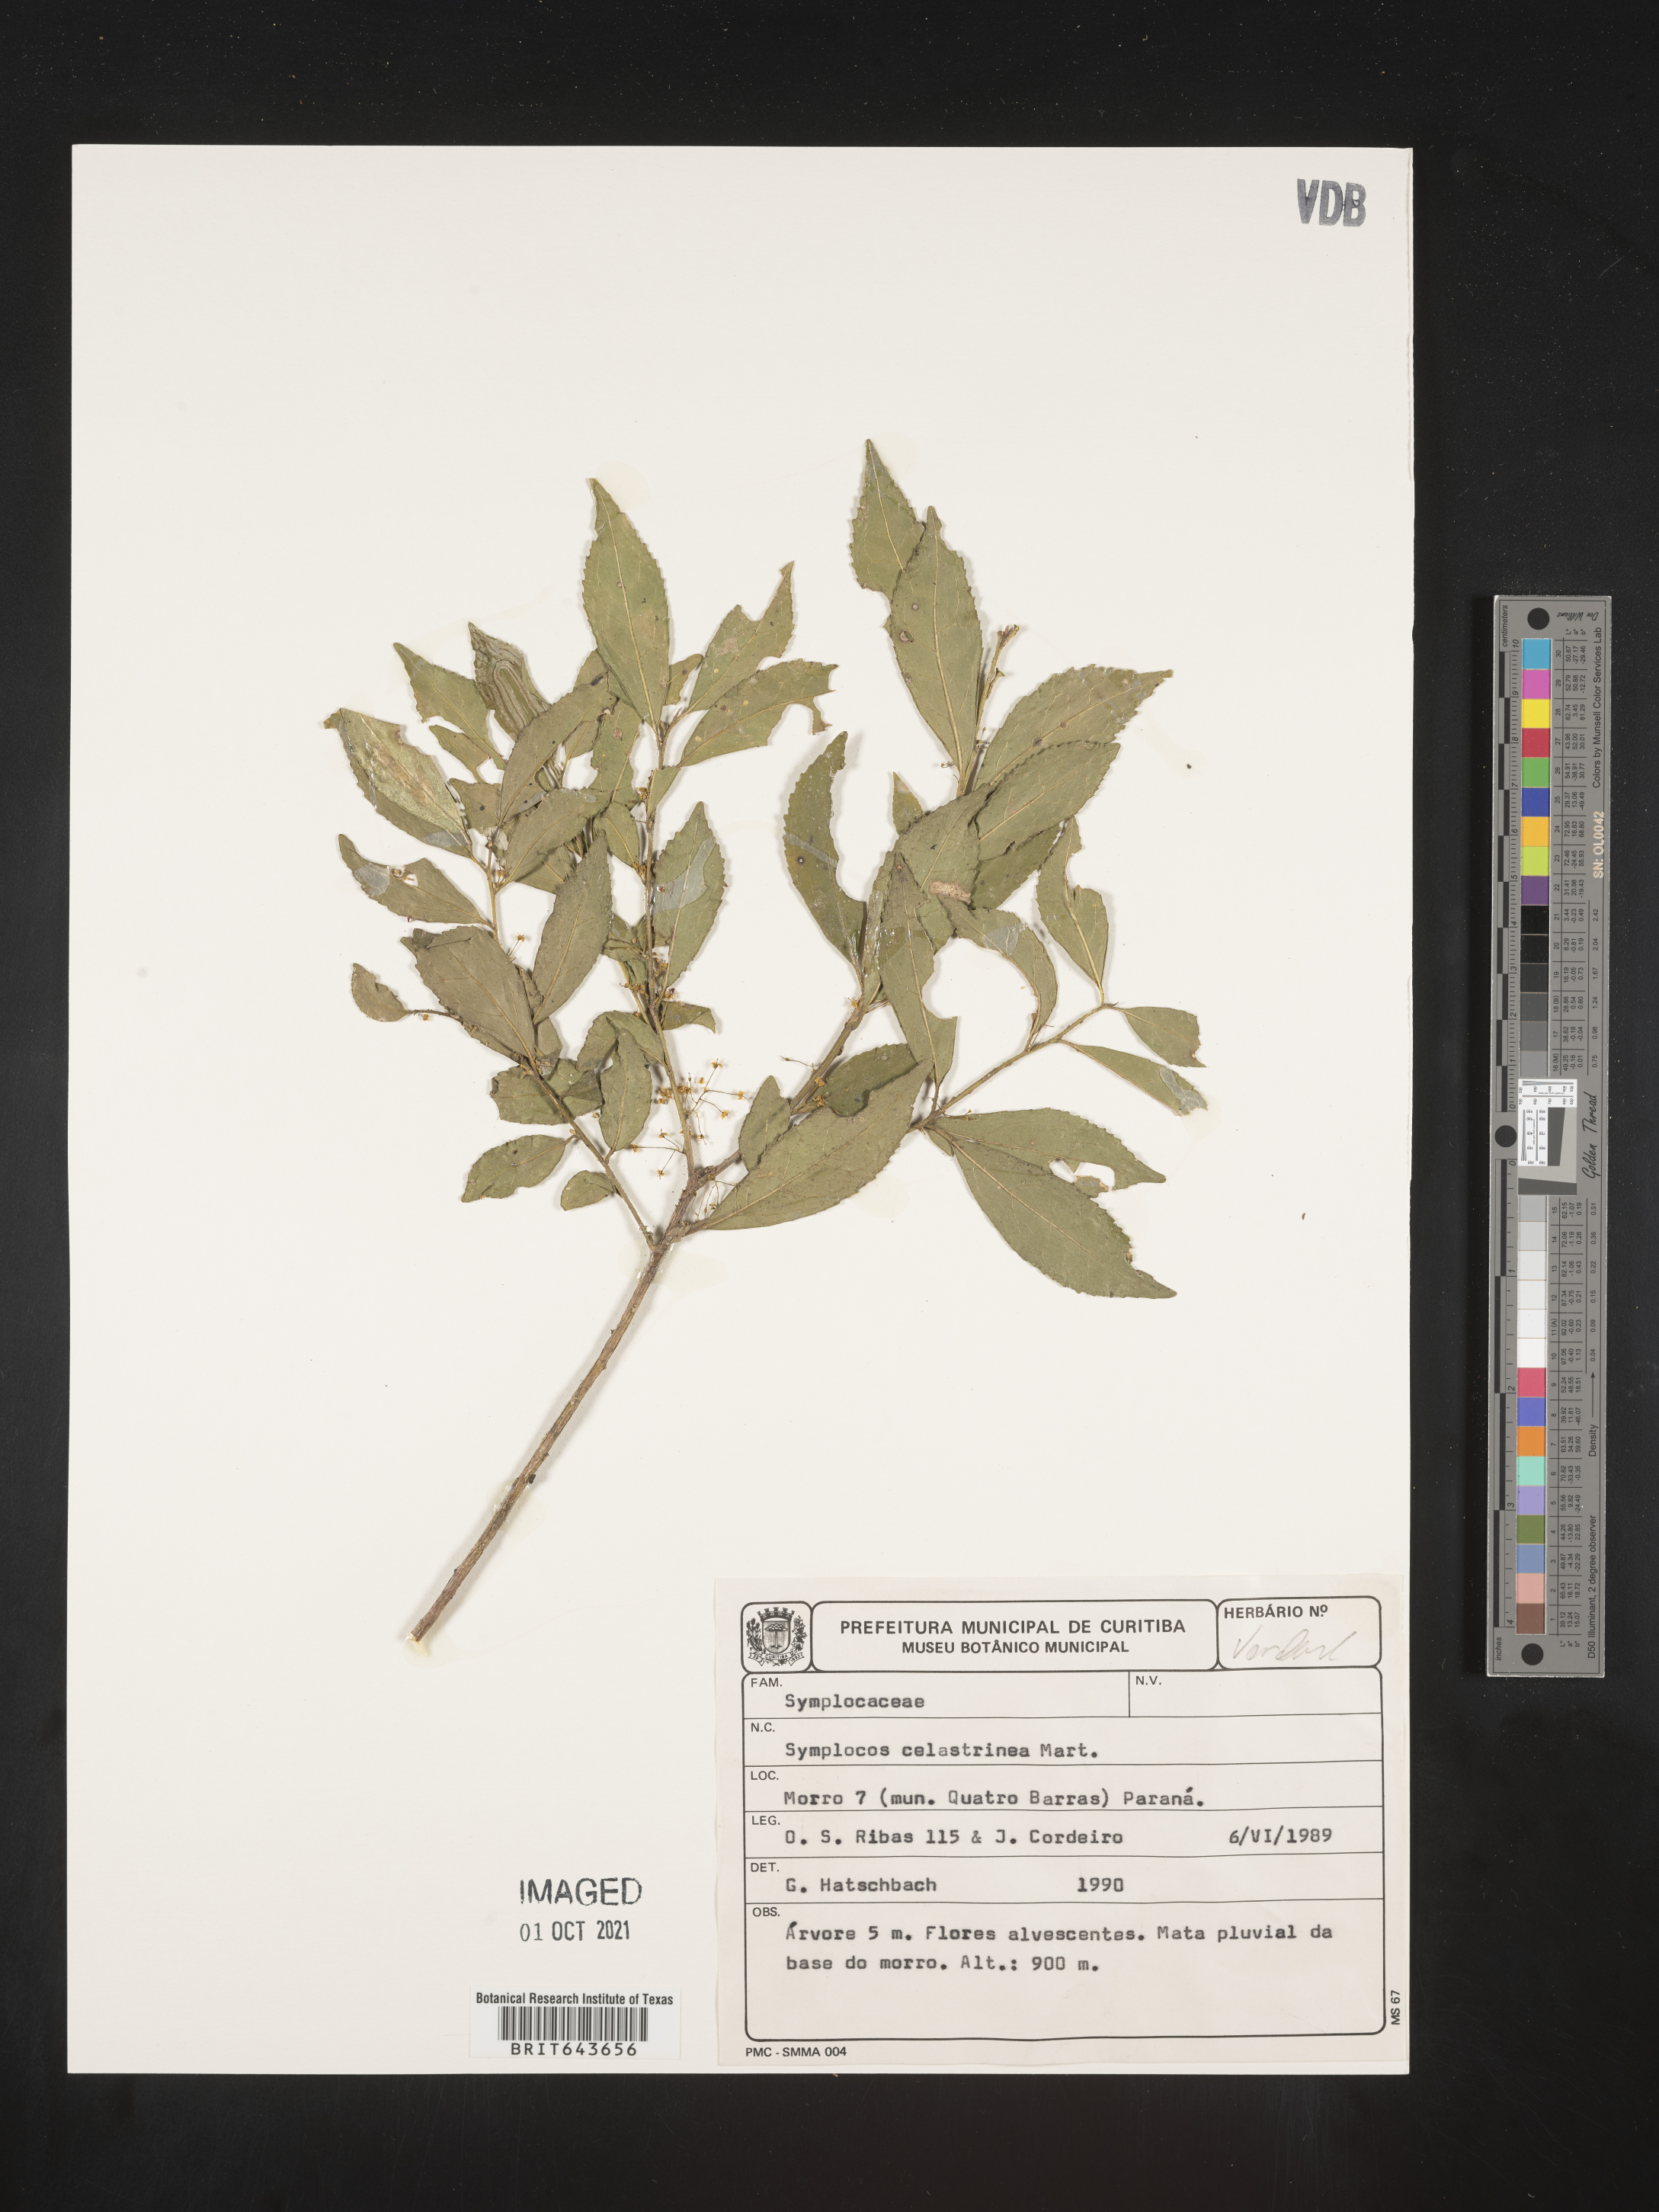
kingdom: Plantae
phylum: Tracheophyta
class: Magnoliopsida
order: Ericales
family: Symplocaceae
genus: Symplocos
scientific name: Symplocos
